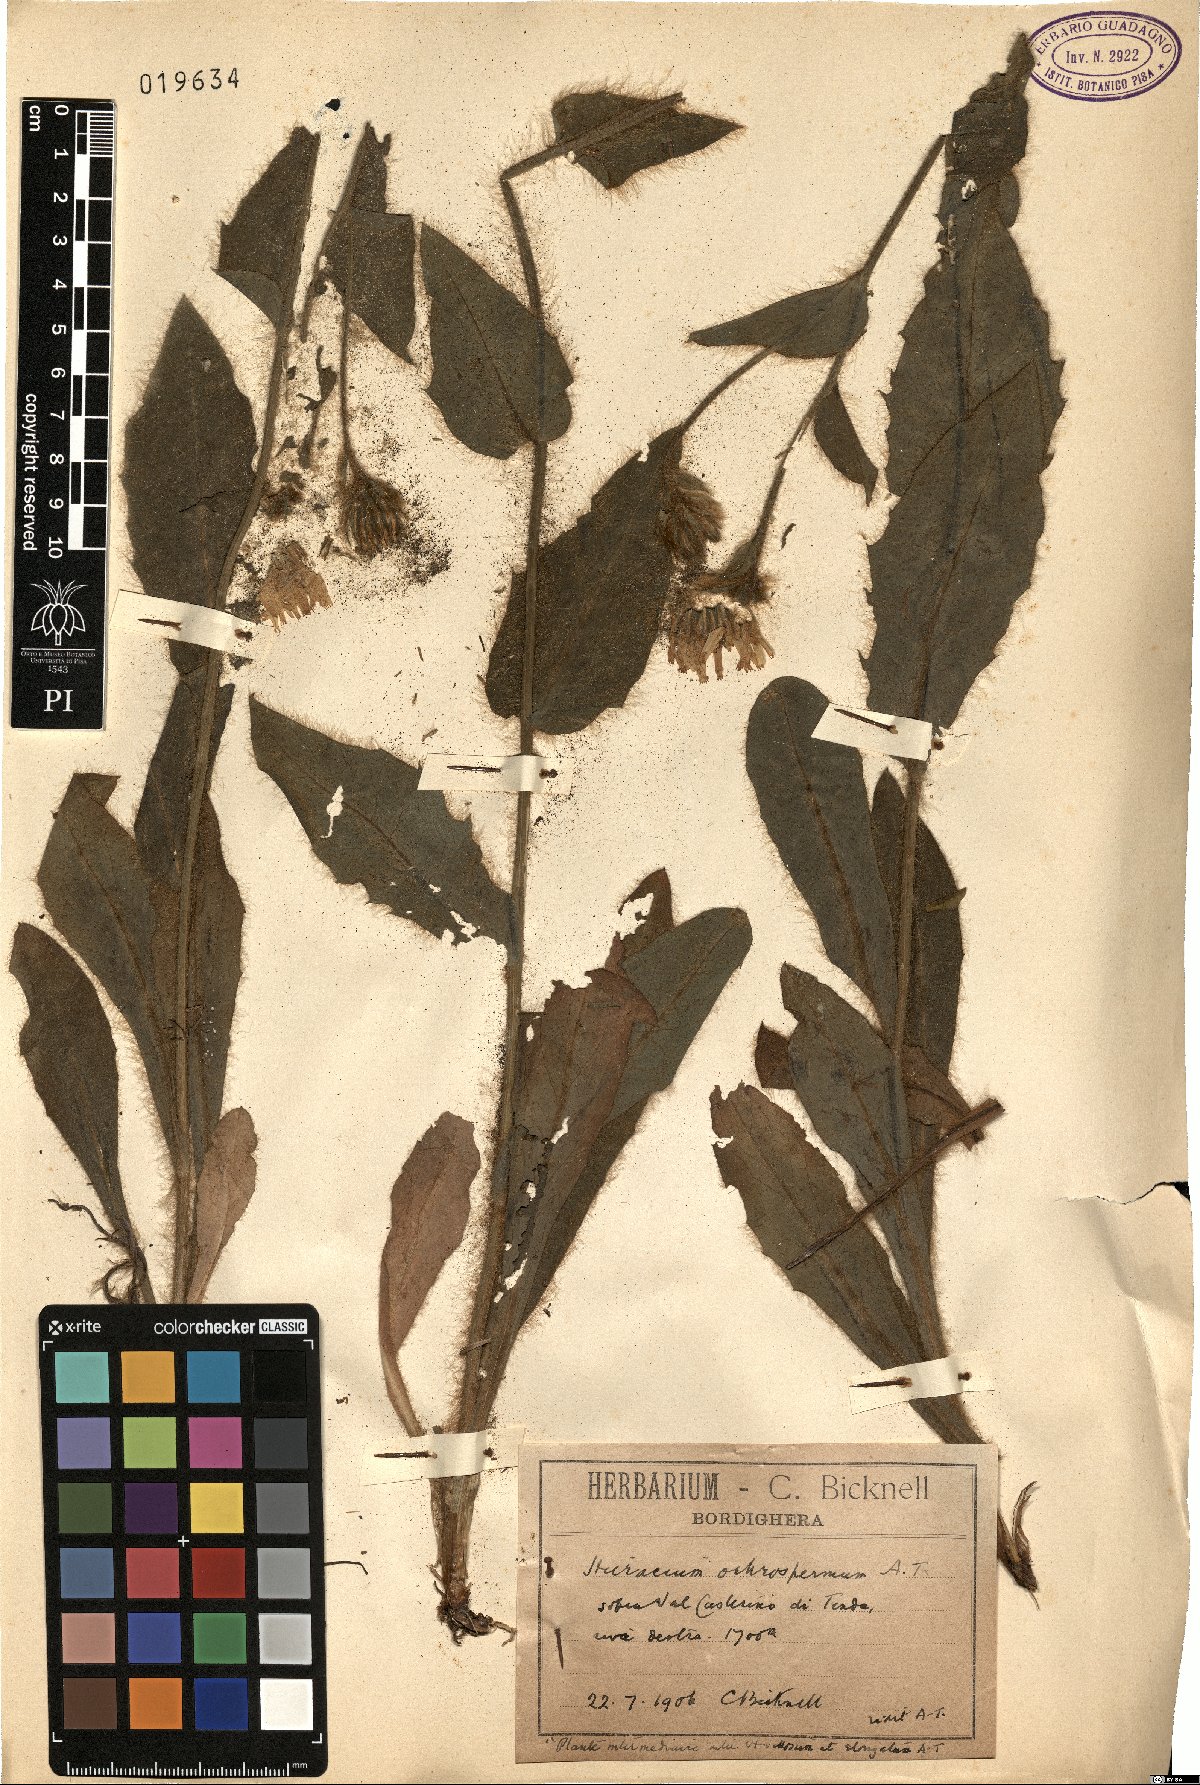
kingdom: Plantae
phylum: Tracheophyta
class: Magnoliopsida
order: Asterales
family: Asteraceae
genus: Hieracium
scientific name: Hieracium sauzei
